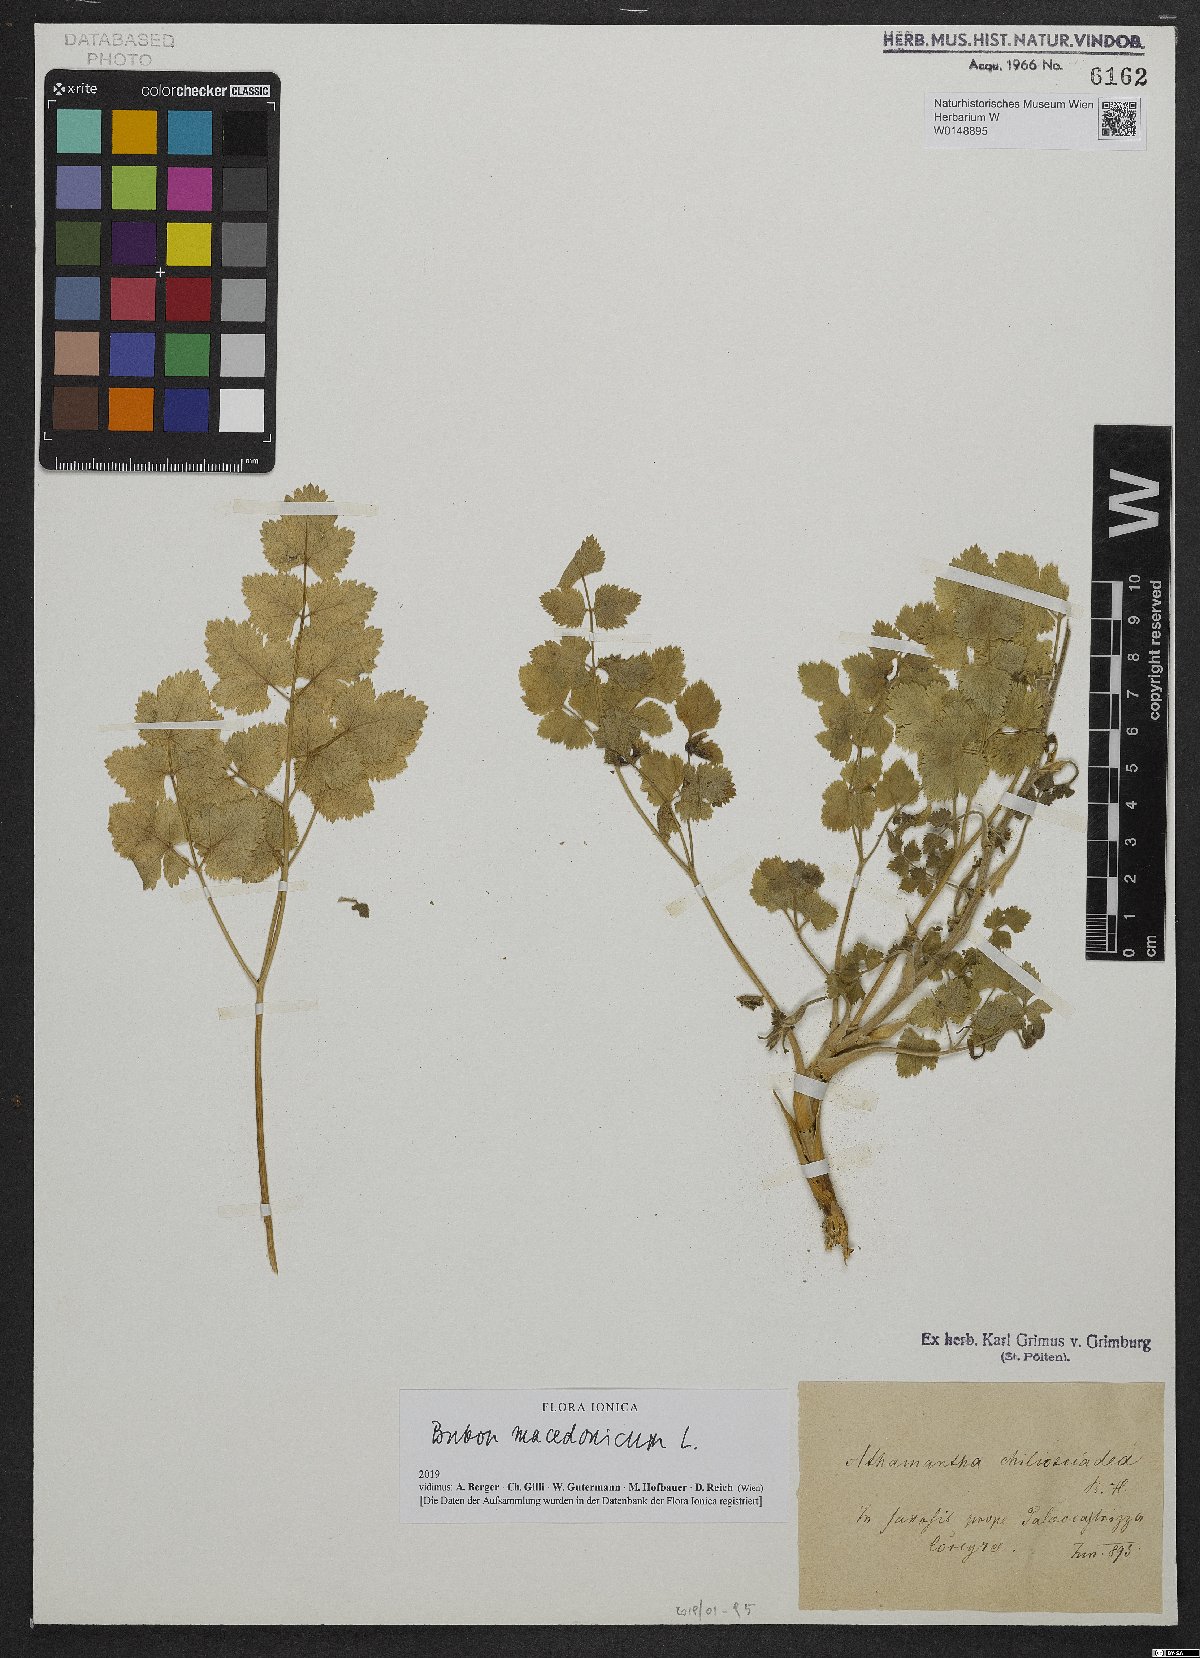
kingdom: Plantae
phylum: Tracheophyta
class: Magnoliopsida
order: Apiales
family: Apiaceae
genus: Bubon
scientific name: Bubon macedonicum
